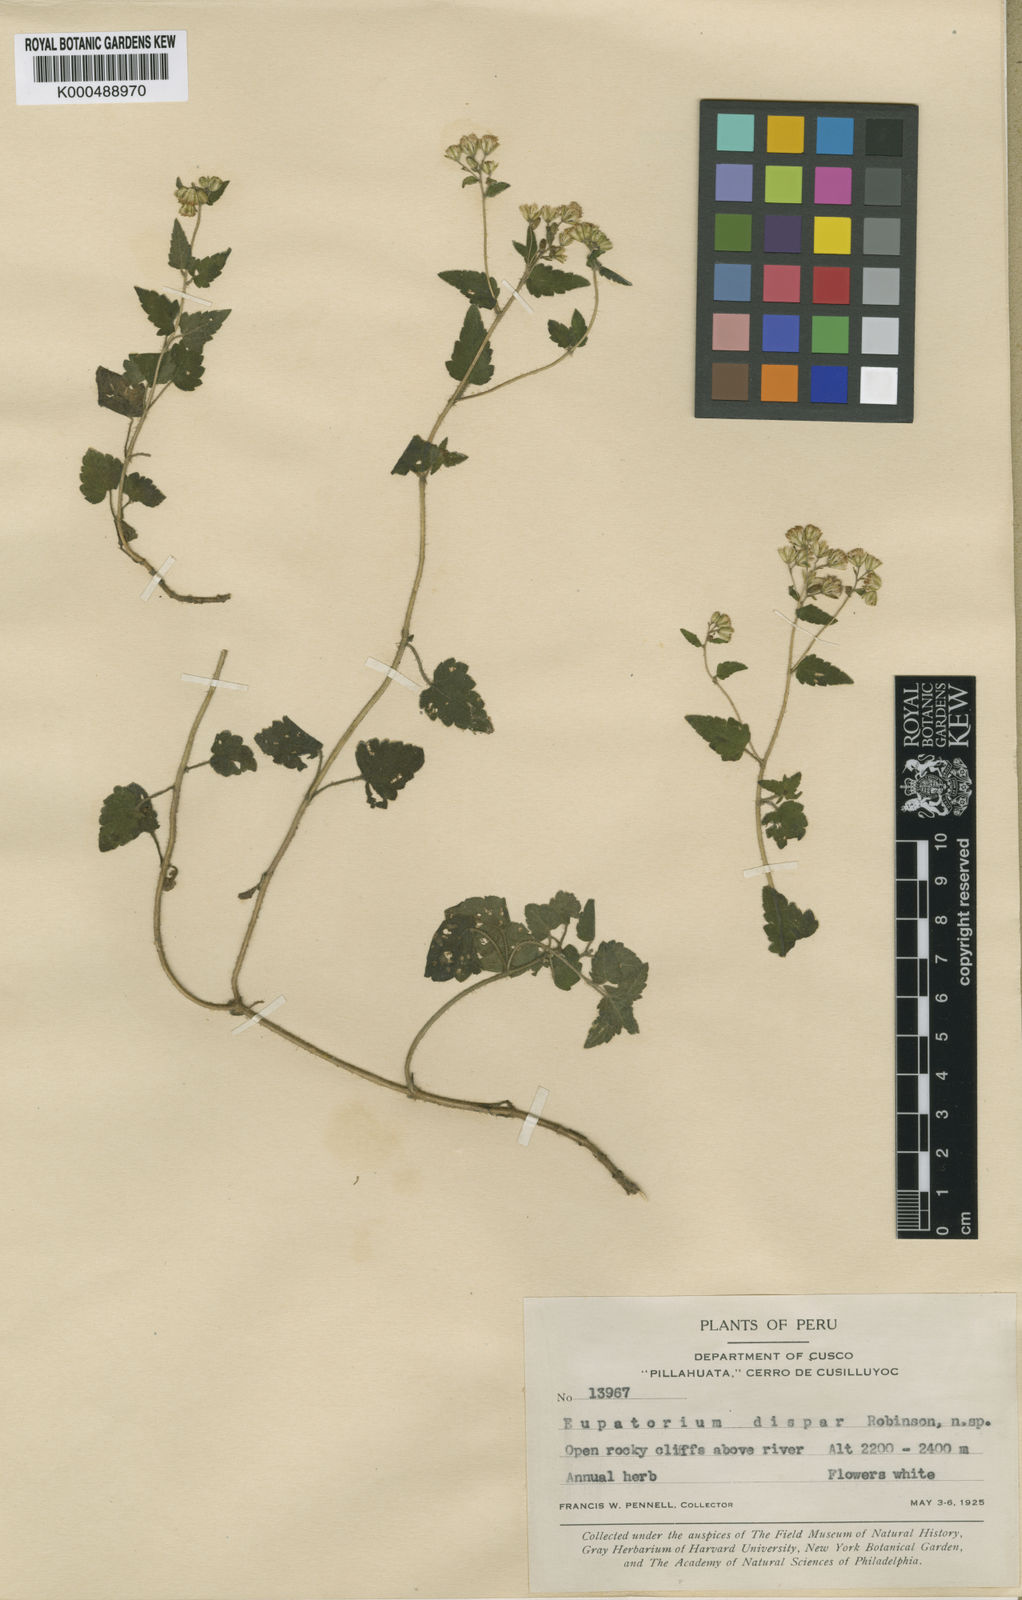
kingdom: Plantae
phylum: Tracheophyta
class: Magnoliopsida
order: Asterales
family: Asteraceae
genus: Neocuatrecasia
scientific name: Neocuatrecasia dispar
